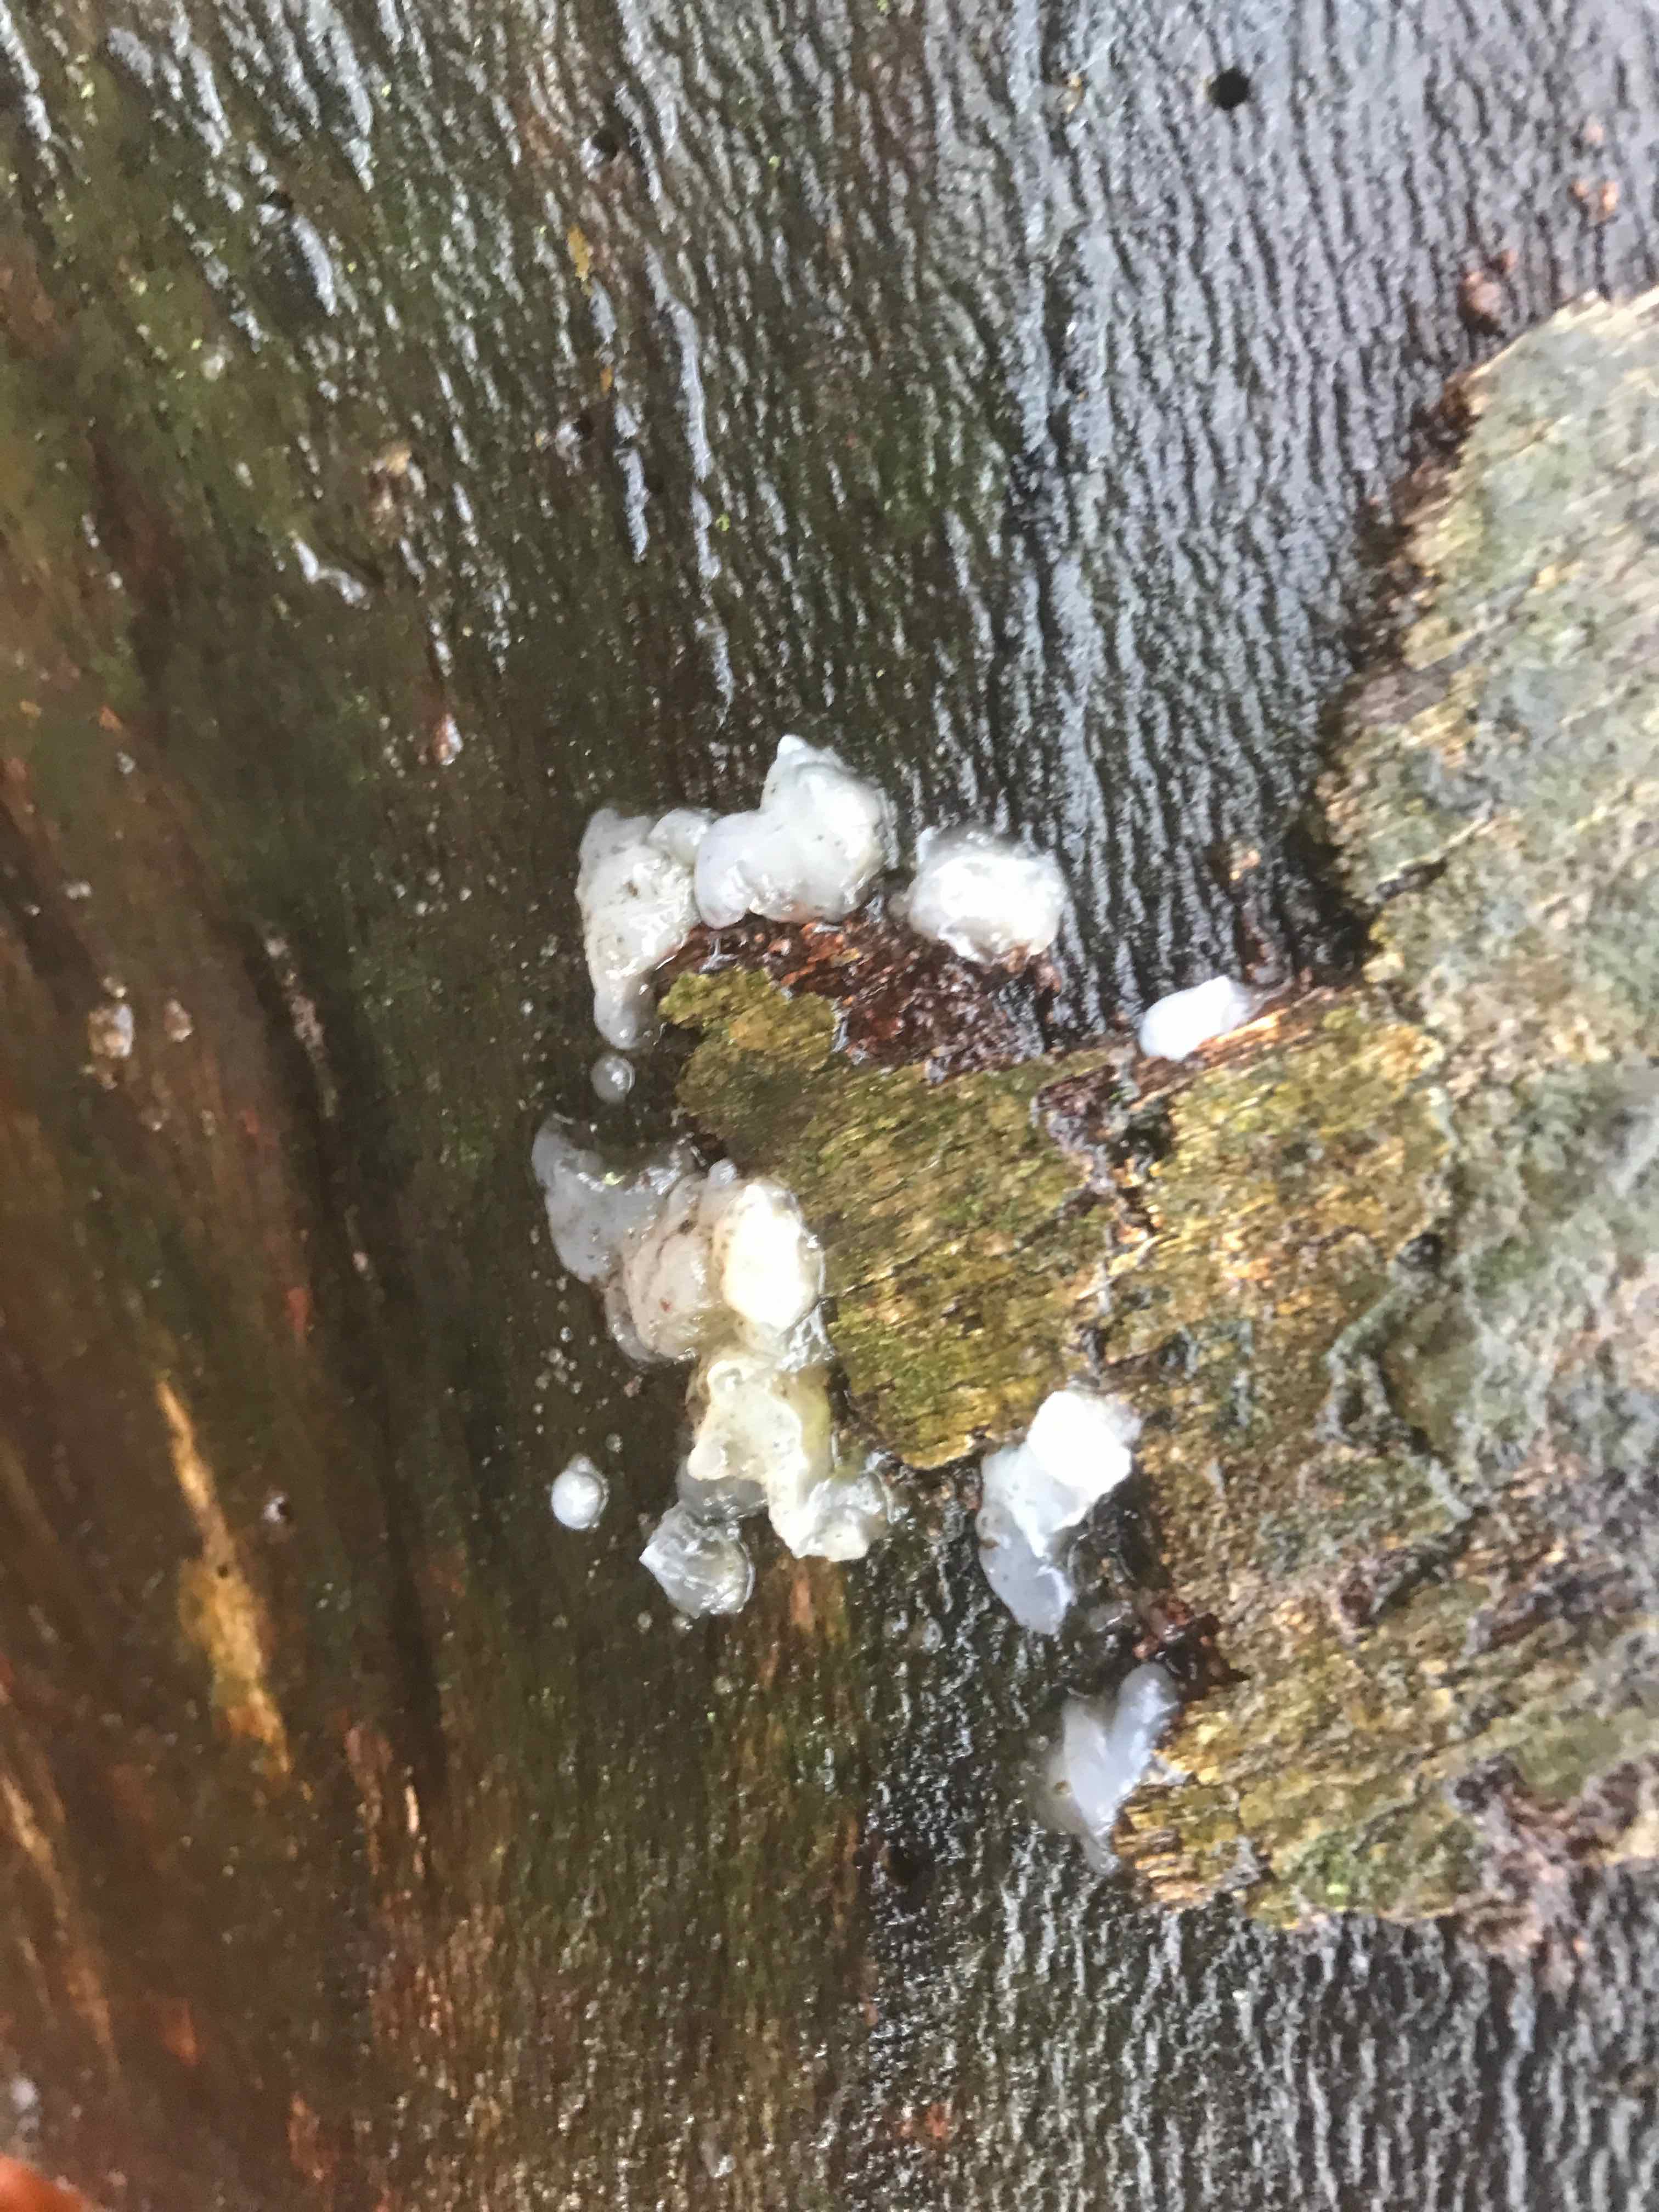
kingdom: Fungi
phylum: Basidiomycota
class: Agaricomycetes
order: Auriculariales
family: Hyaloriaceae
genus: Myxarium
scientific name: Myxarium nucleatum
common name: klar bævretop
